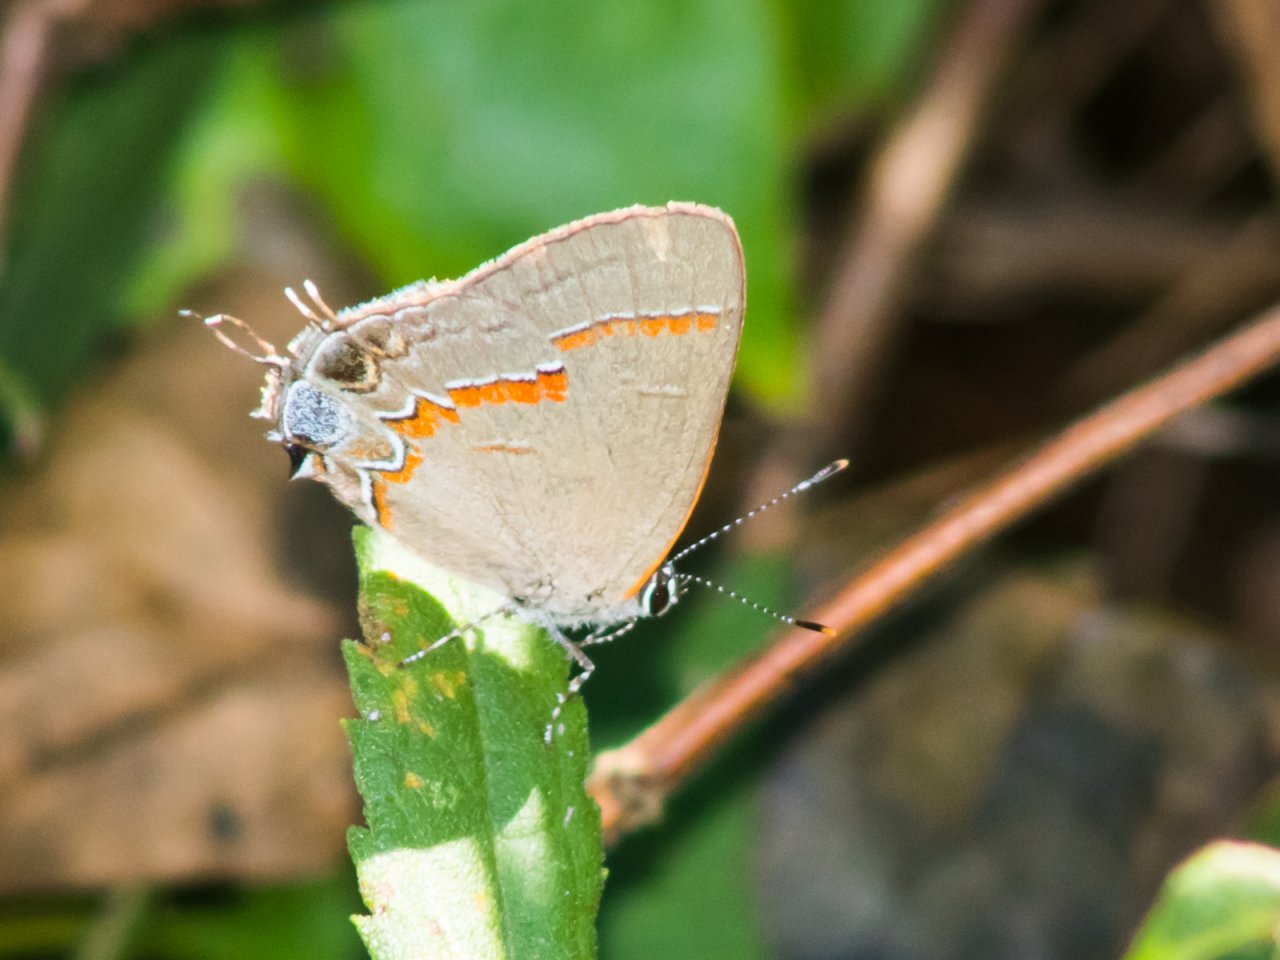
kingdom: Animalia
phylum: Arthropoda
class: Insecta
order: Lepidoptera
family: Lycaenidae
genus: Calycopis
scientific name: Calycopis cecrops
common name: Red-banded Hairstreak
